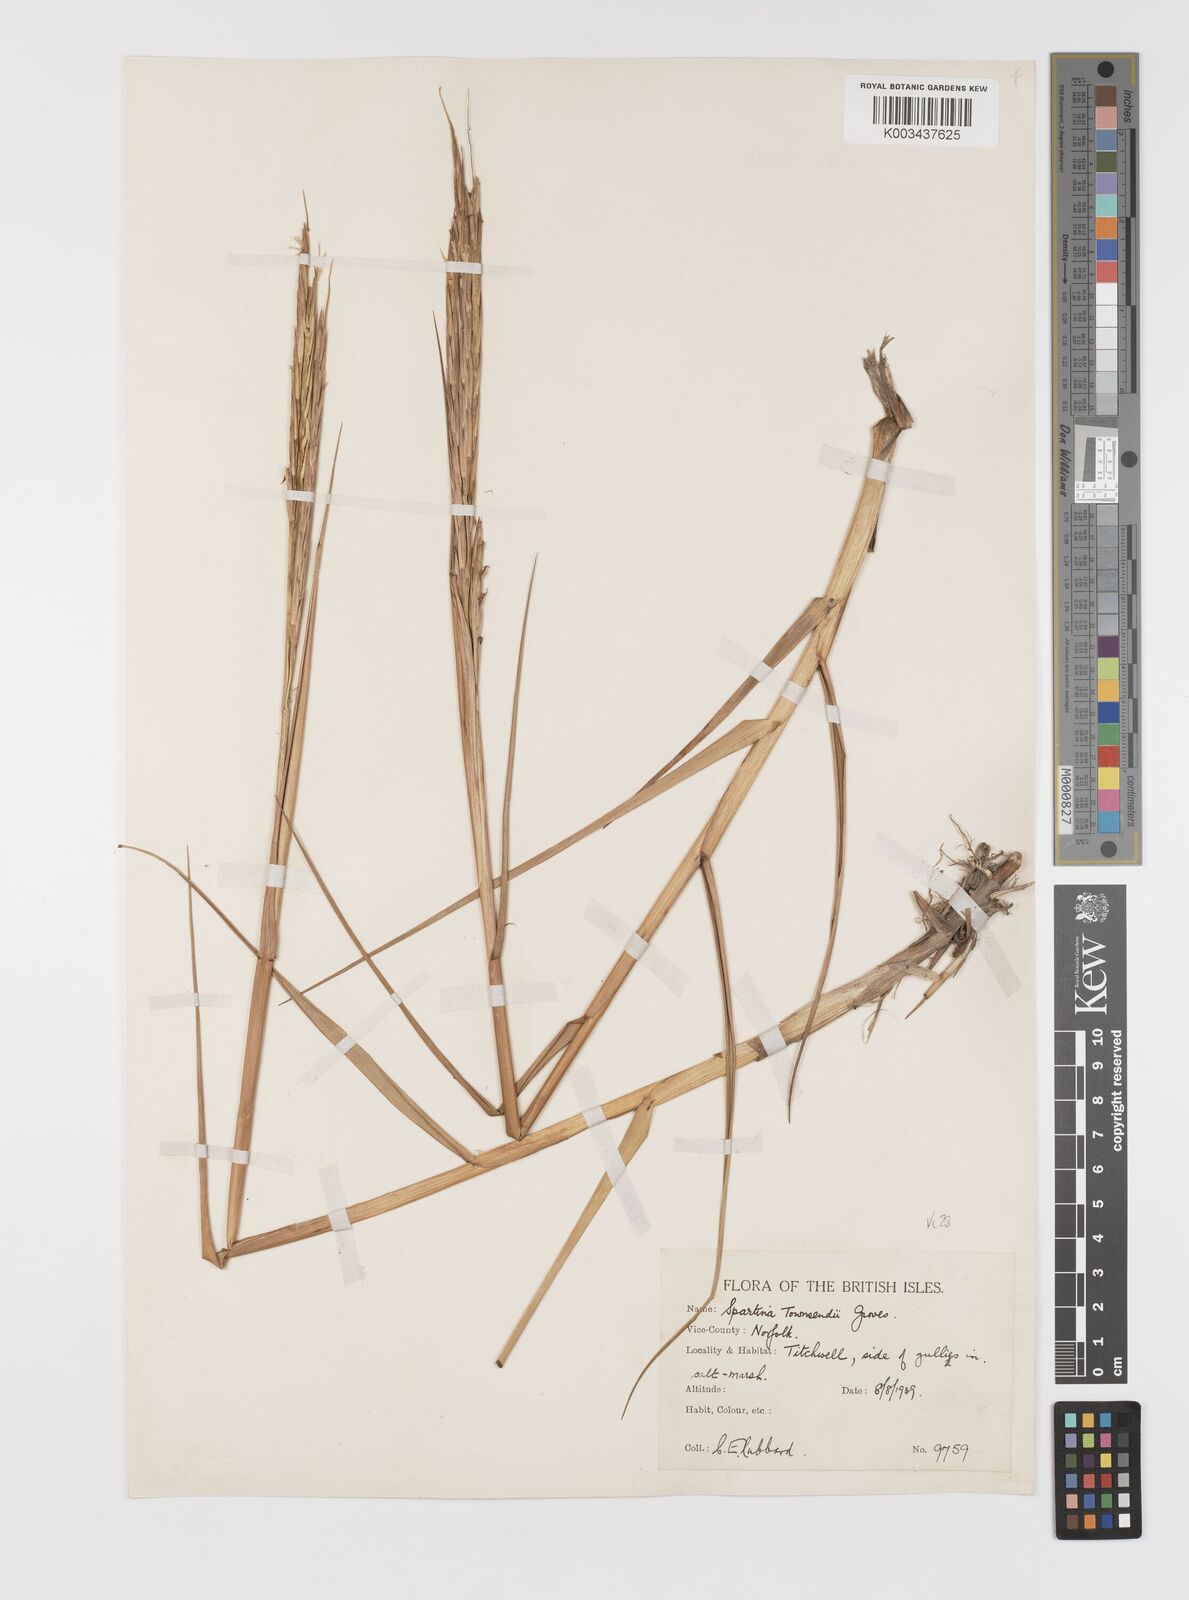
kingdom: Plantae
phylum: Tracheophyta
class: Liliopsida
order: Poales
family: Poaceae
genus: Sporobolus
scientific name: Sporobolus anglicus
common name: English cordgrass
